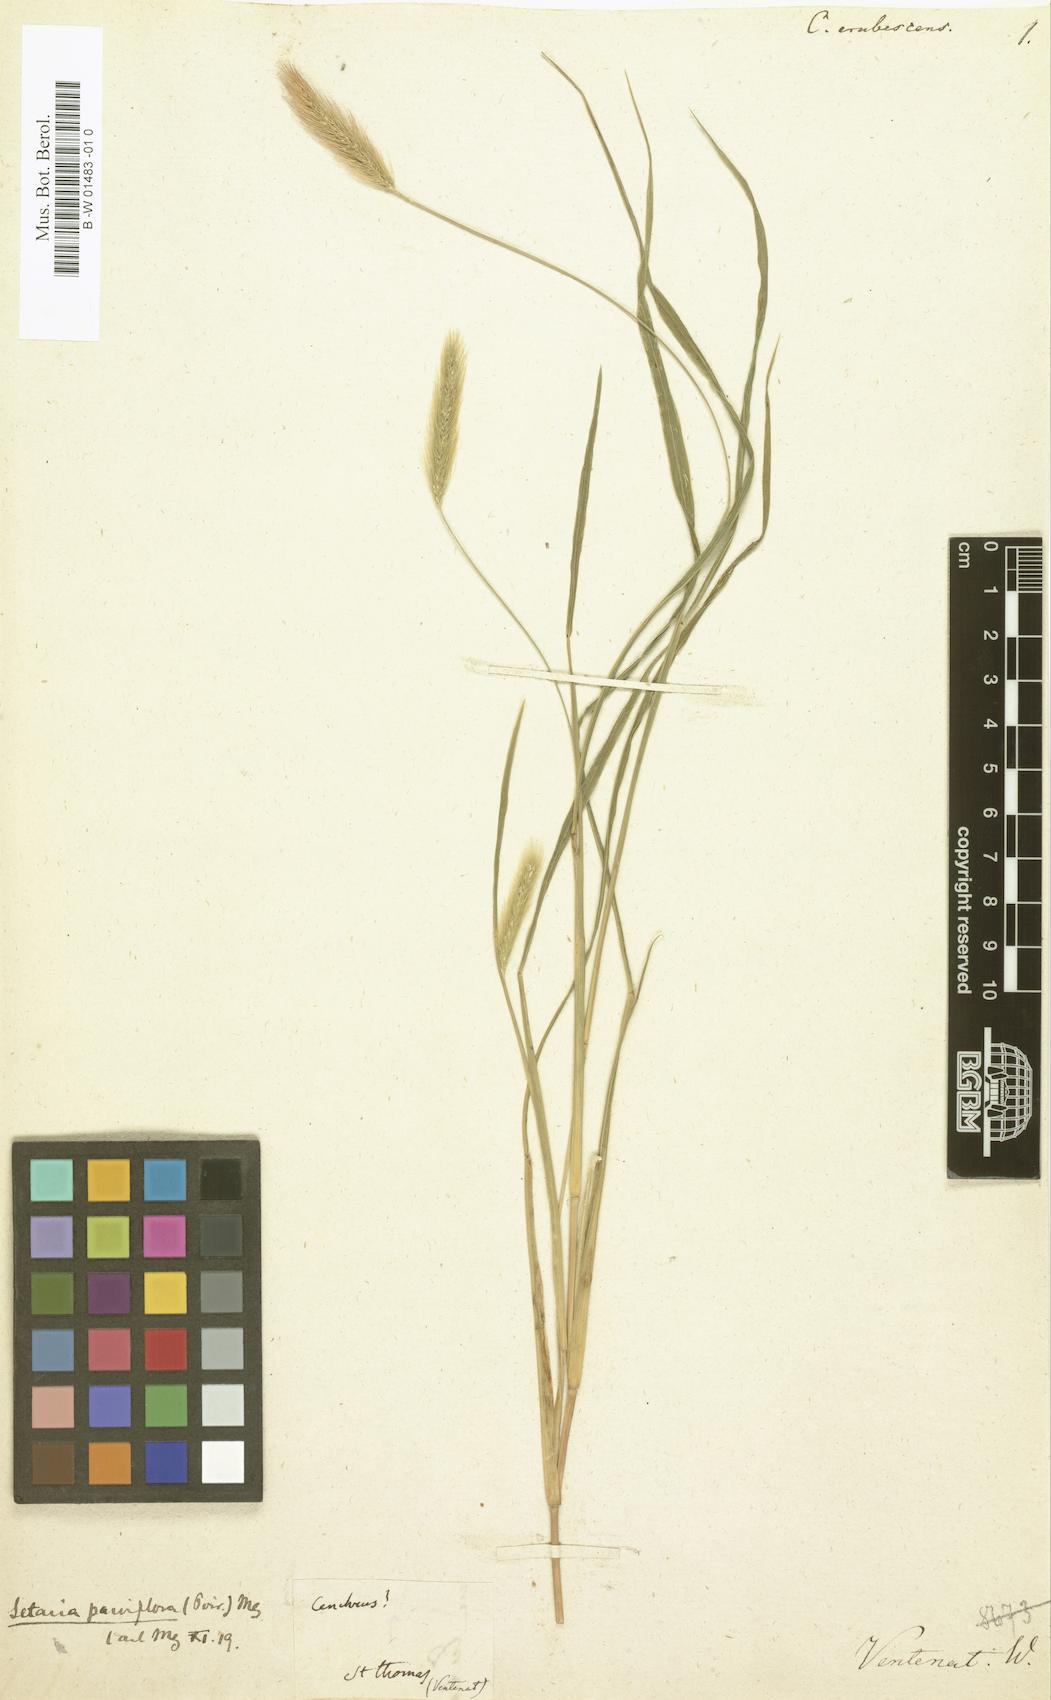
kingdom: Plantae
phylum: Tracheophyta
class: Liliopsida
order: Poales
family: Poaceae
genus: Cenchrus
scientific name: Cenchrus
